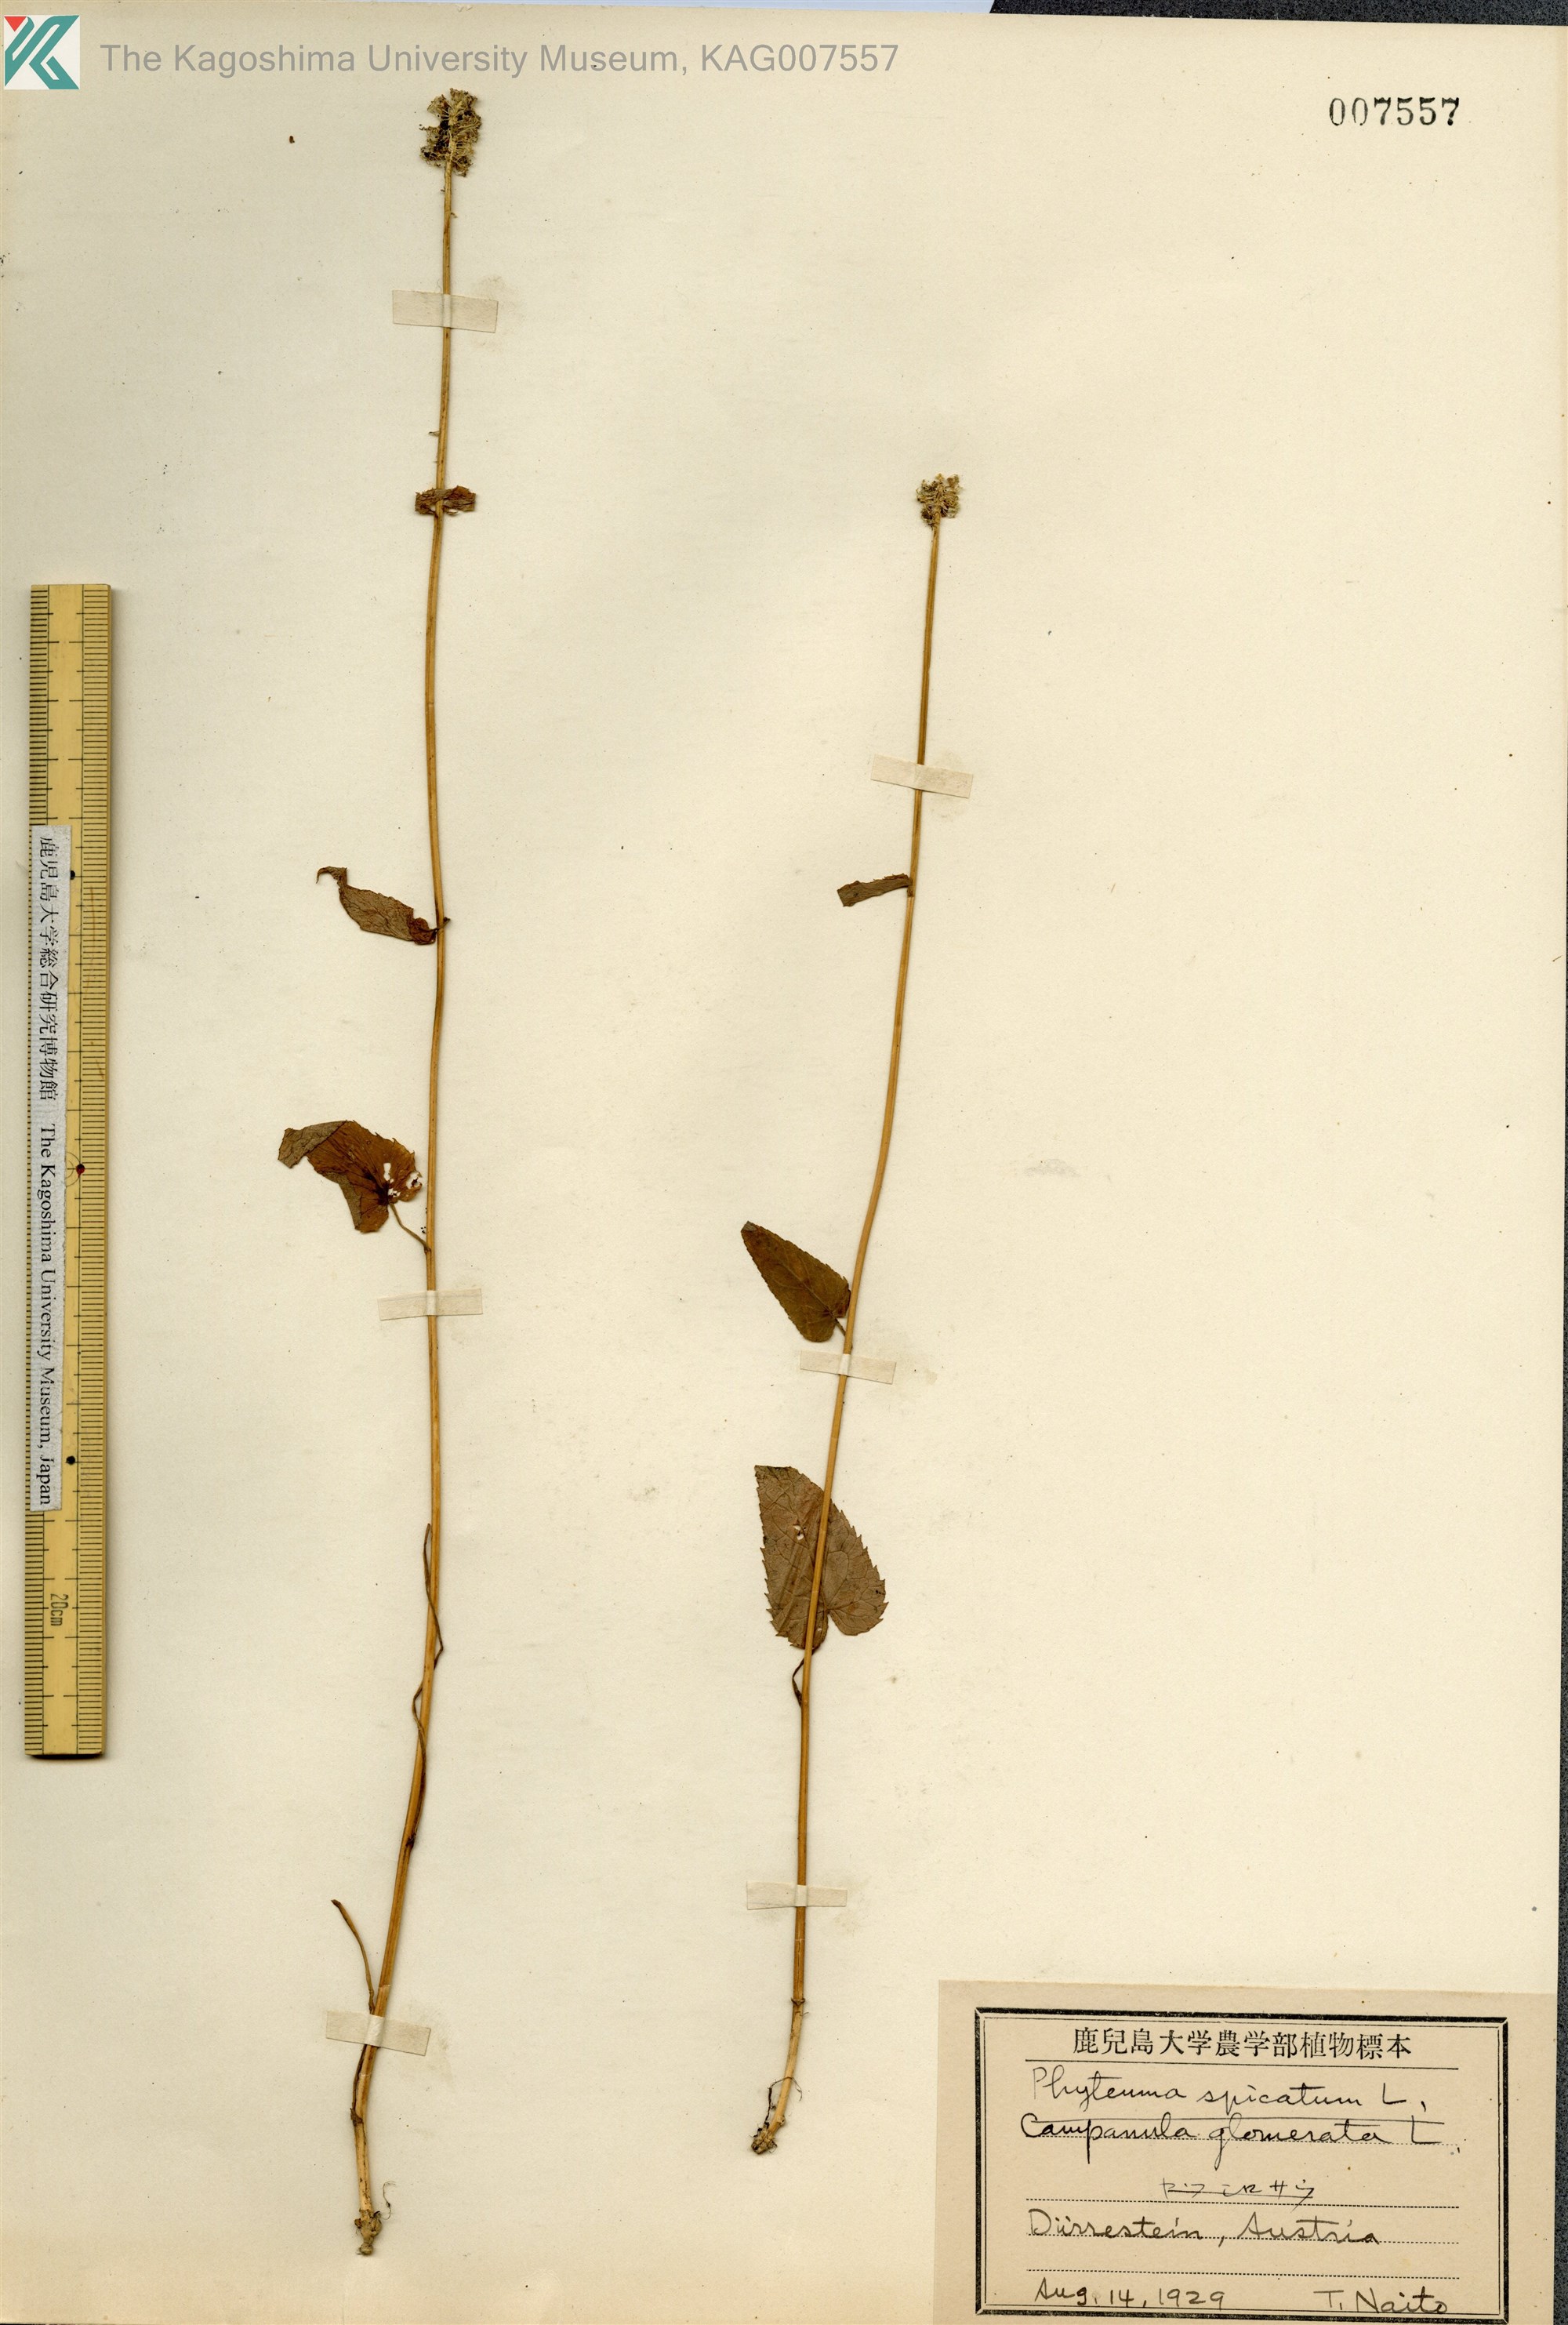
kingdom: Plantae
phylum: Tracheophyta
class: Magnoliopsida
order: Asterales
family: Campanulaceae
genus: Phyteuma
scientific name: Phyteuma spicatum
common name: Spiked rampion
